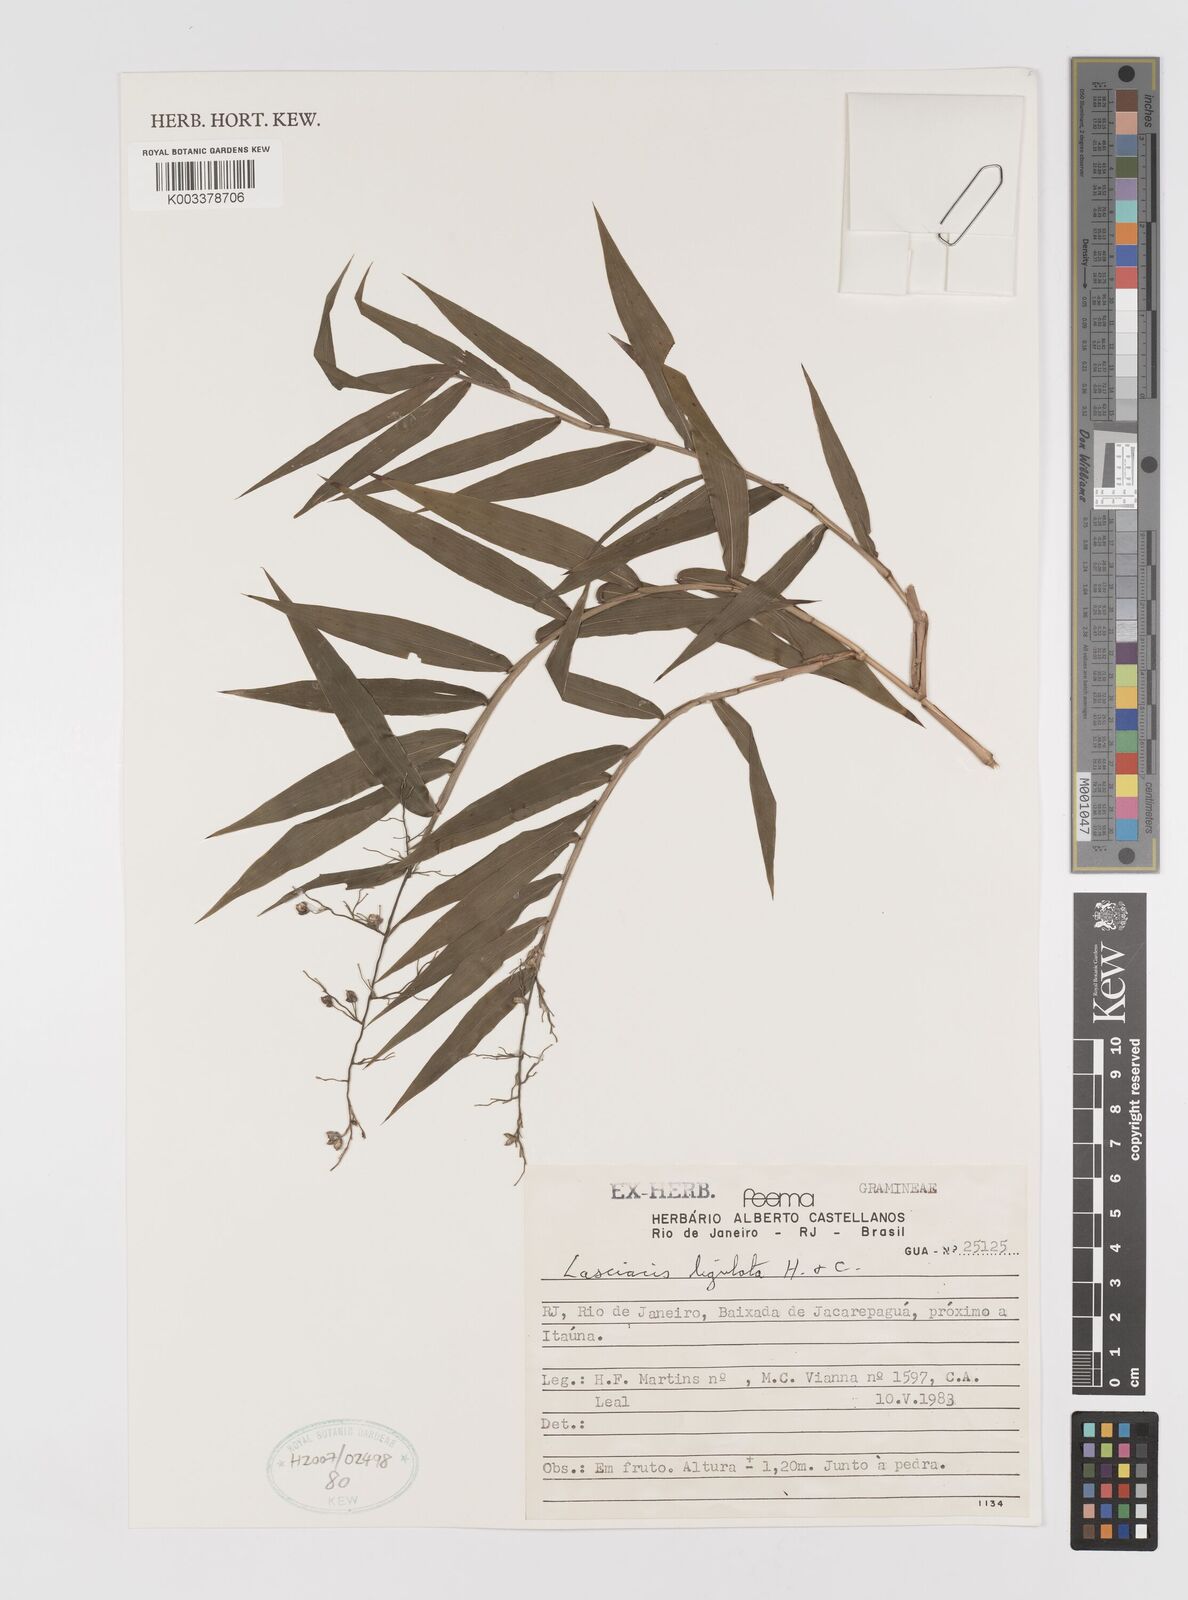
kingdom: Plantae
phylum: Tracheophyta
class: Liliopsida
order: Poales
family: Poaceae
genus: Lasiacis
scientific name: Lasiacis ligulata
